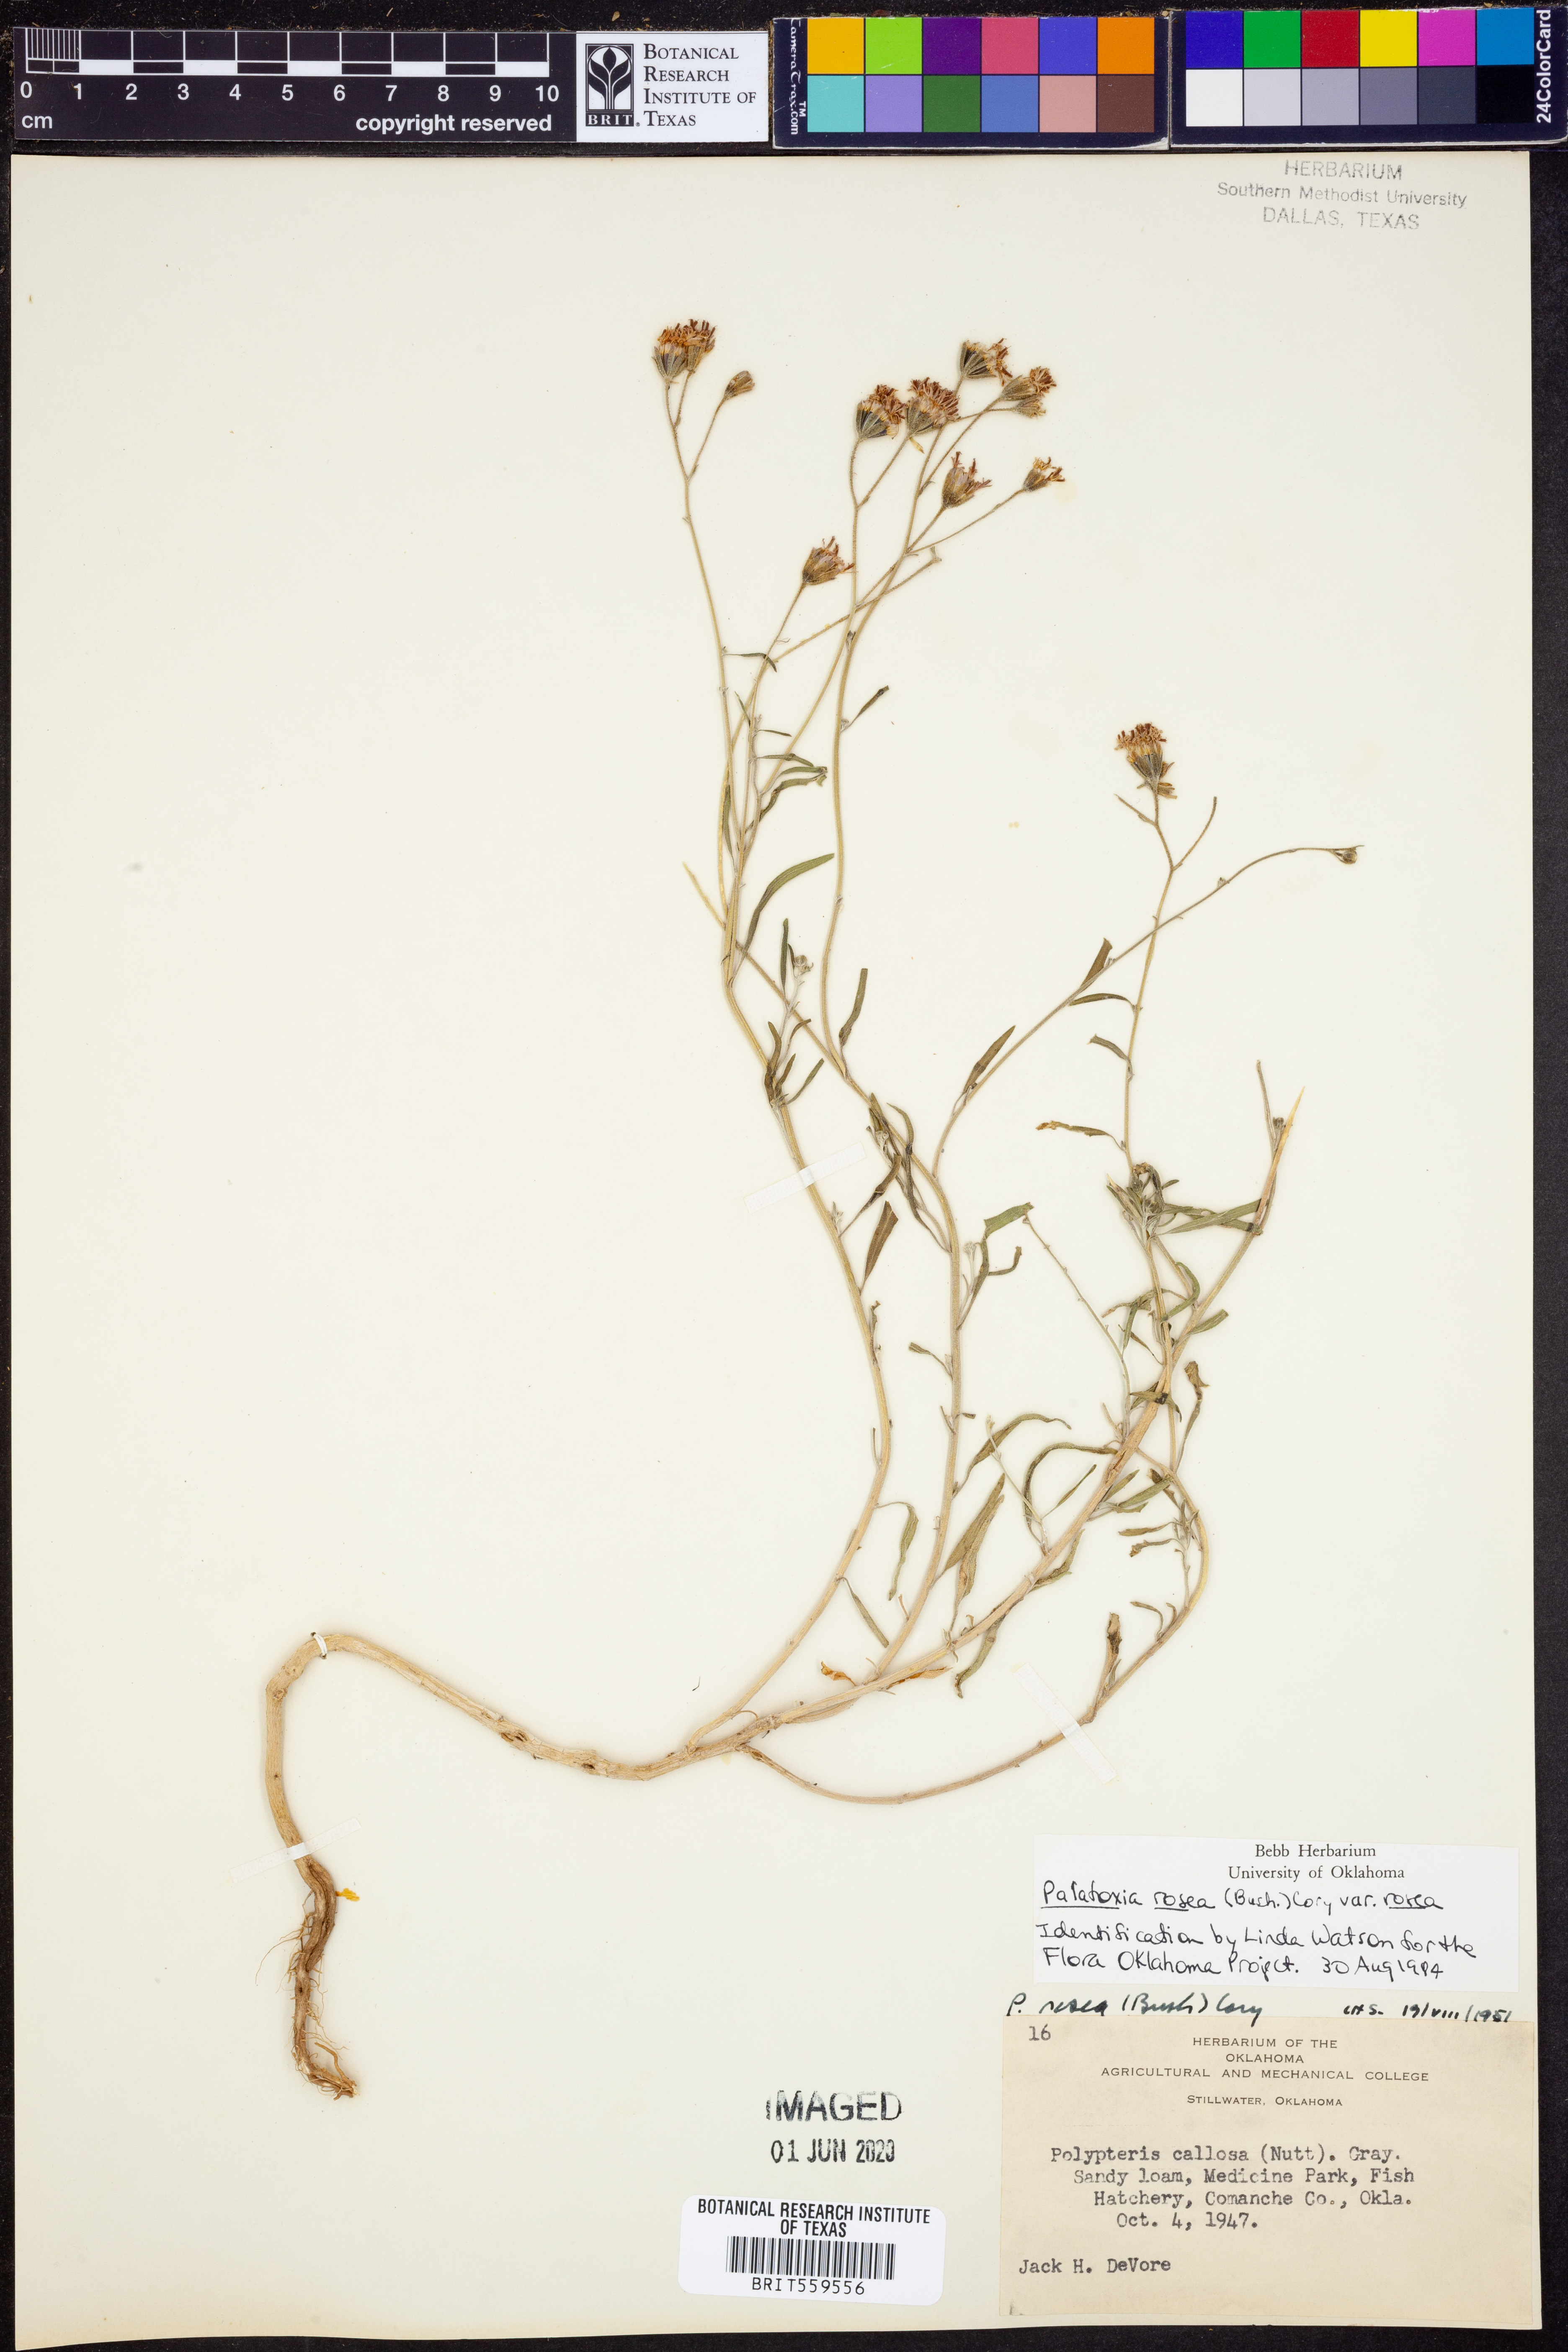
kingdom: Plantae
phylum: Tracheophyta
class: Magnoliopsida
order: Asterales
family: Asteraceae
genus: Palafoxia
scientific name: Palafoxia rosea
